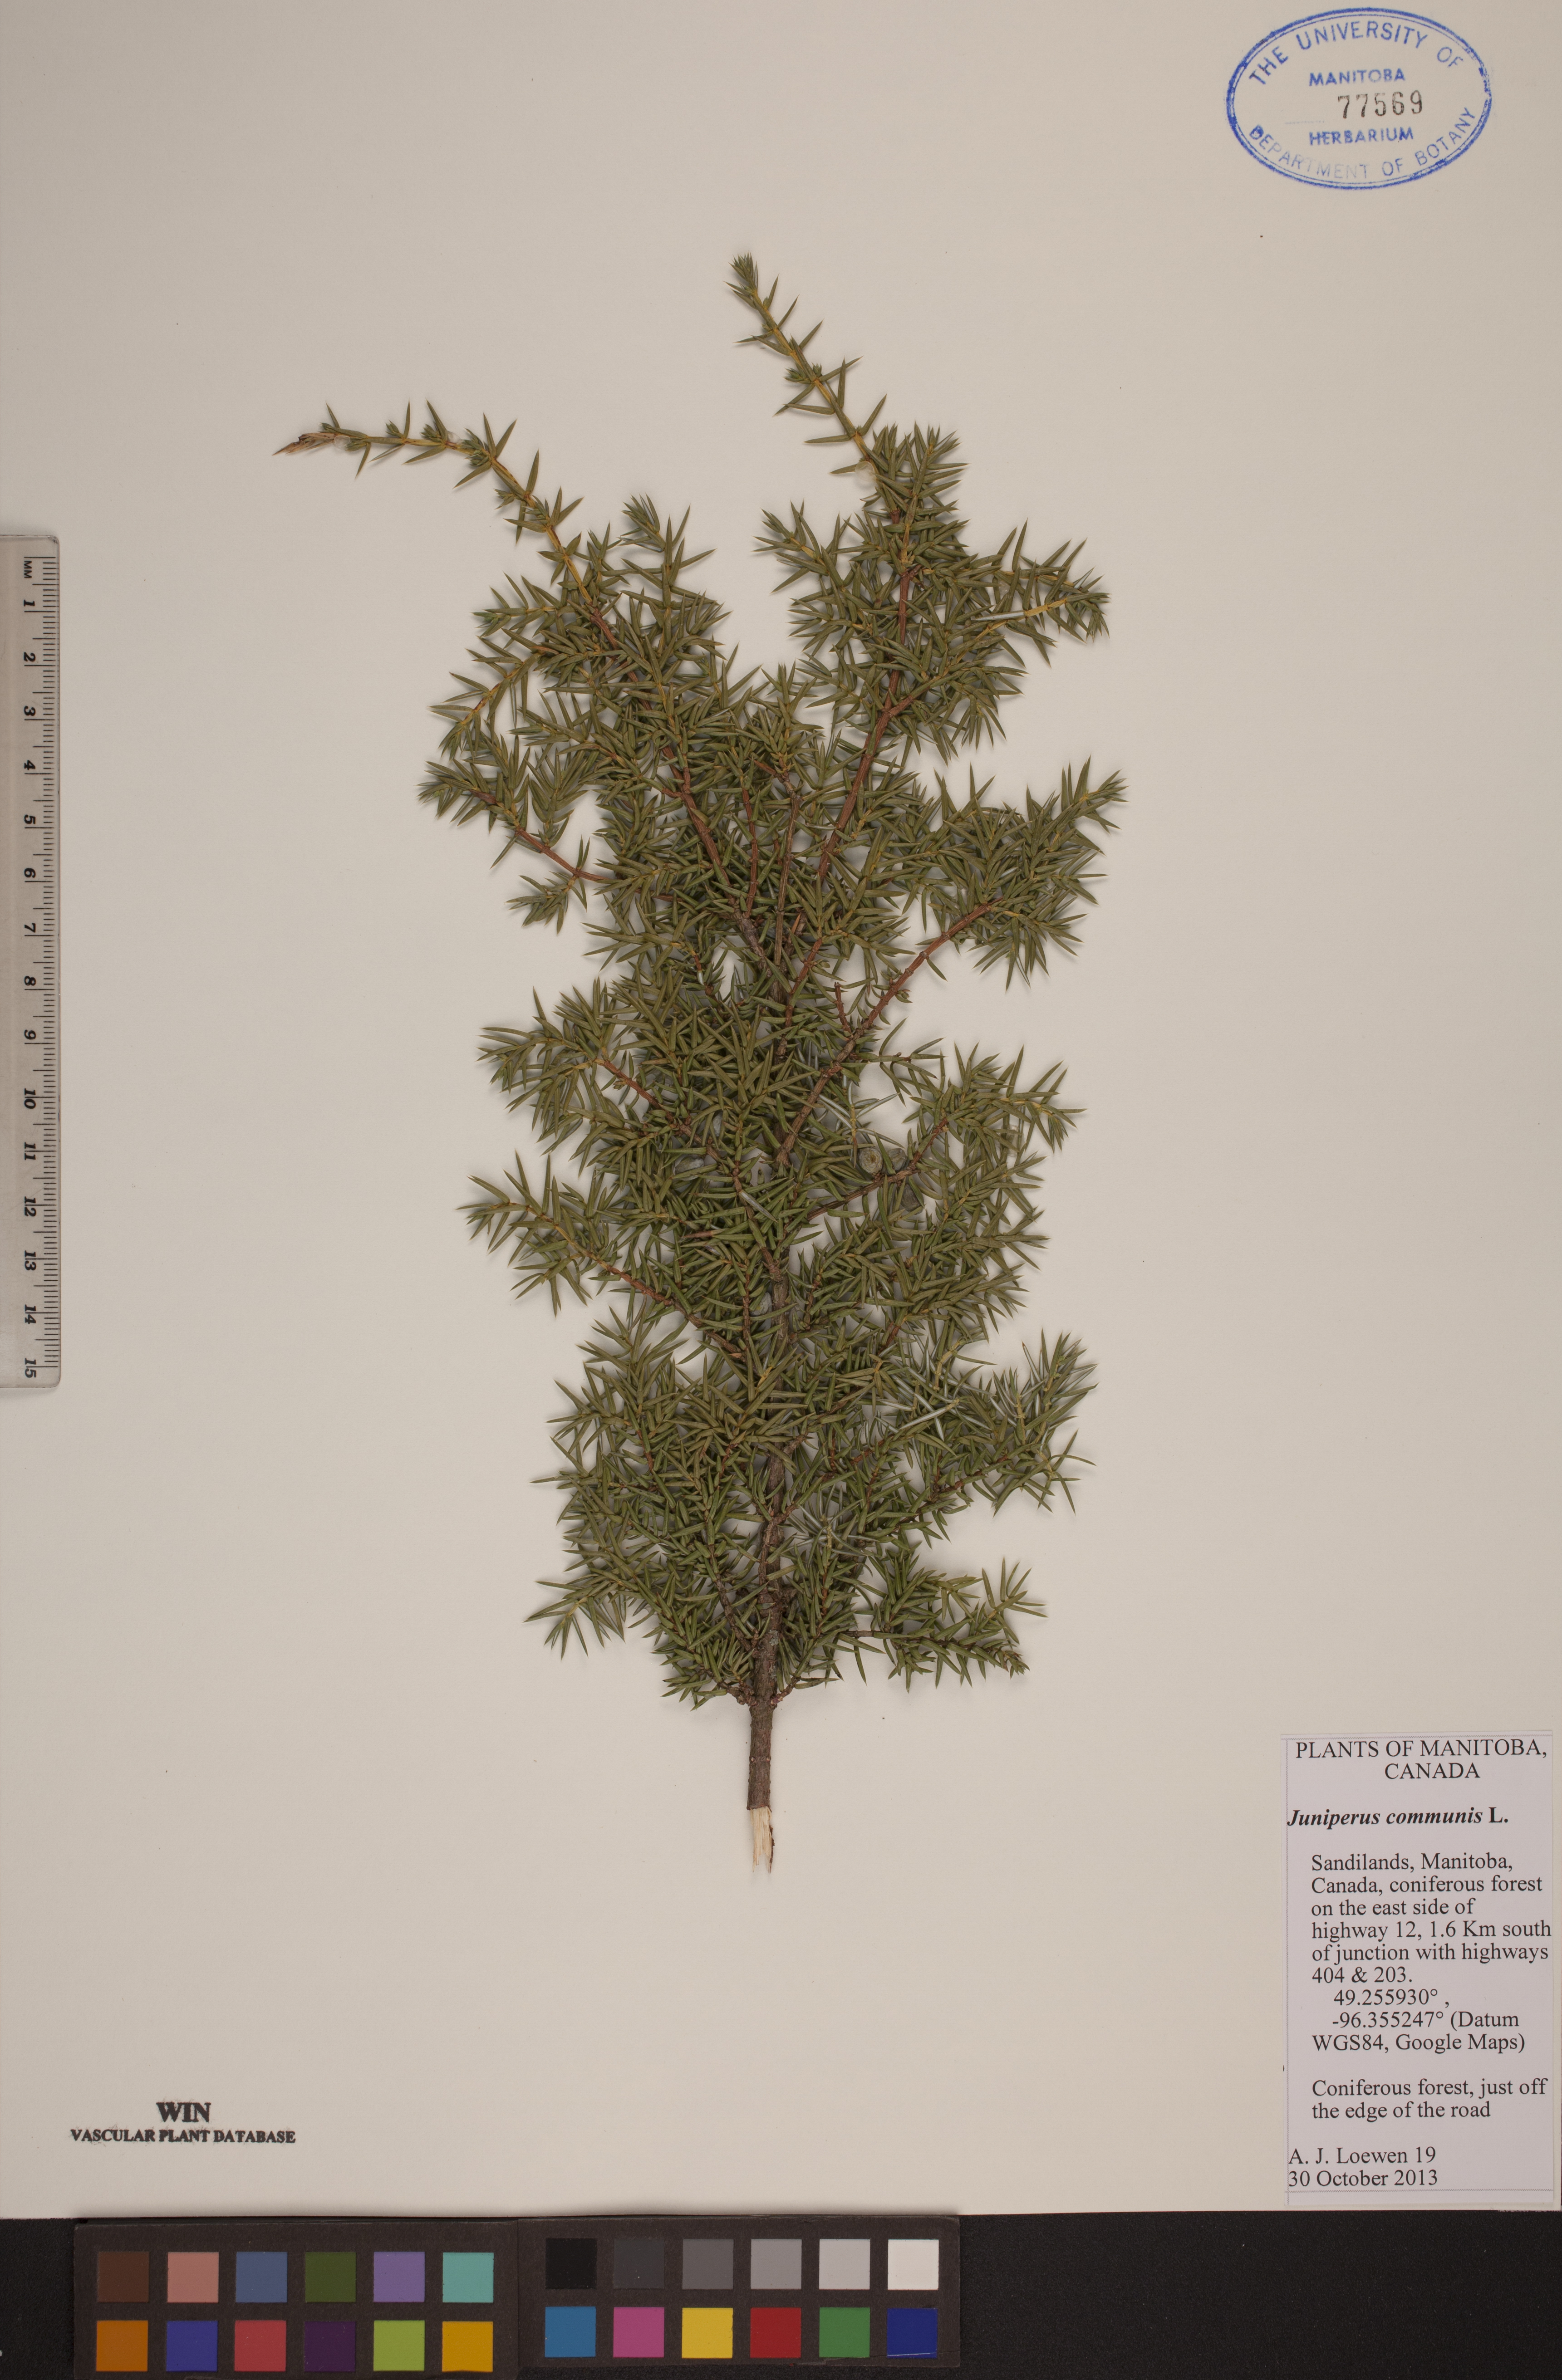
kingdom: Plantae
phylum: Tracheophyta
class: Pinopsida
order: Pinales
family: Cupressaceae
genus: Juniperus
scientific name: Juniperus communis
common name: Common juniper
